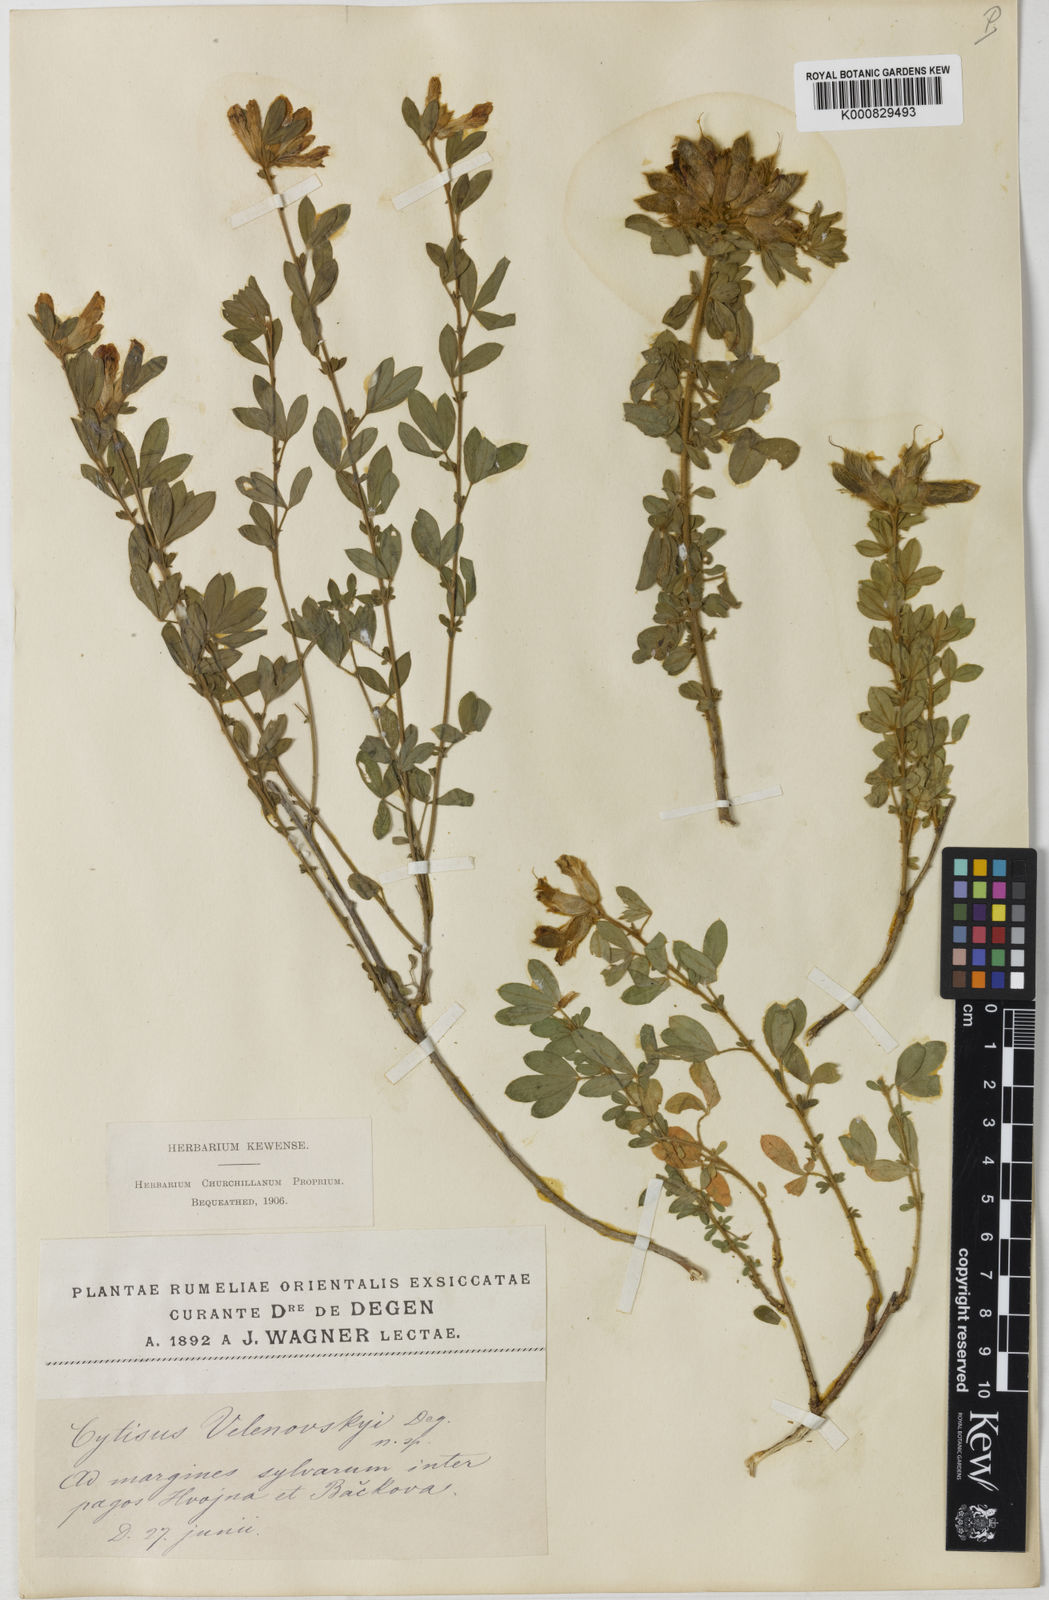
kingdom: Plantae
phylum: Tracheophyta
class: Magnoliopsida
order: Fabales
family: Fabaceae
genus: Chamaecytisus
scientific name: Chamaecytisus frivaldszkyanus
